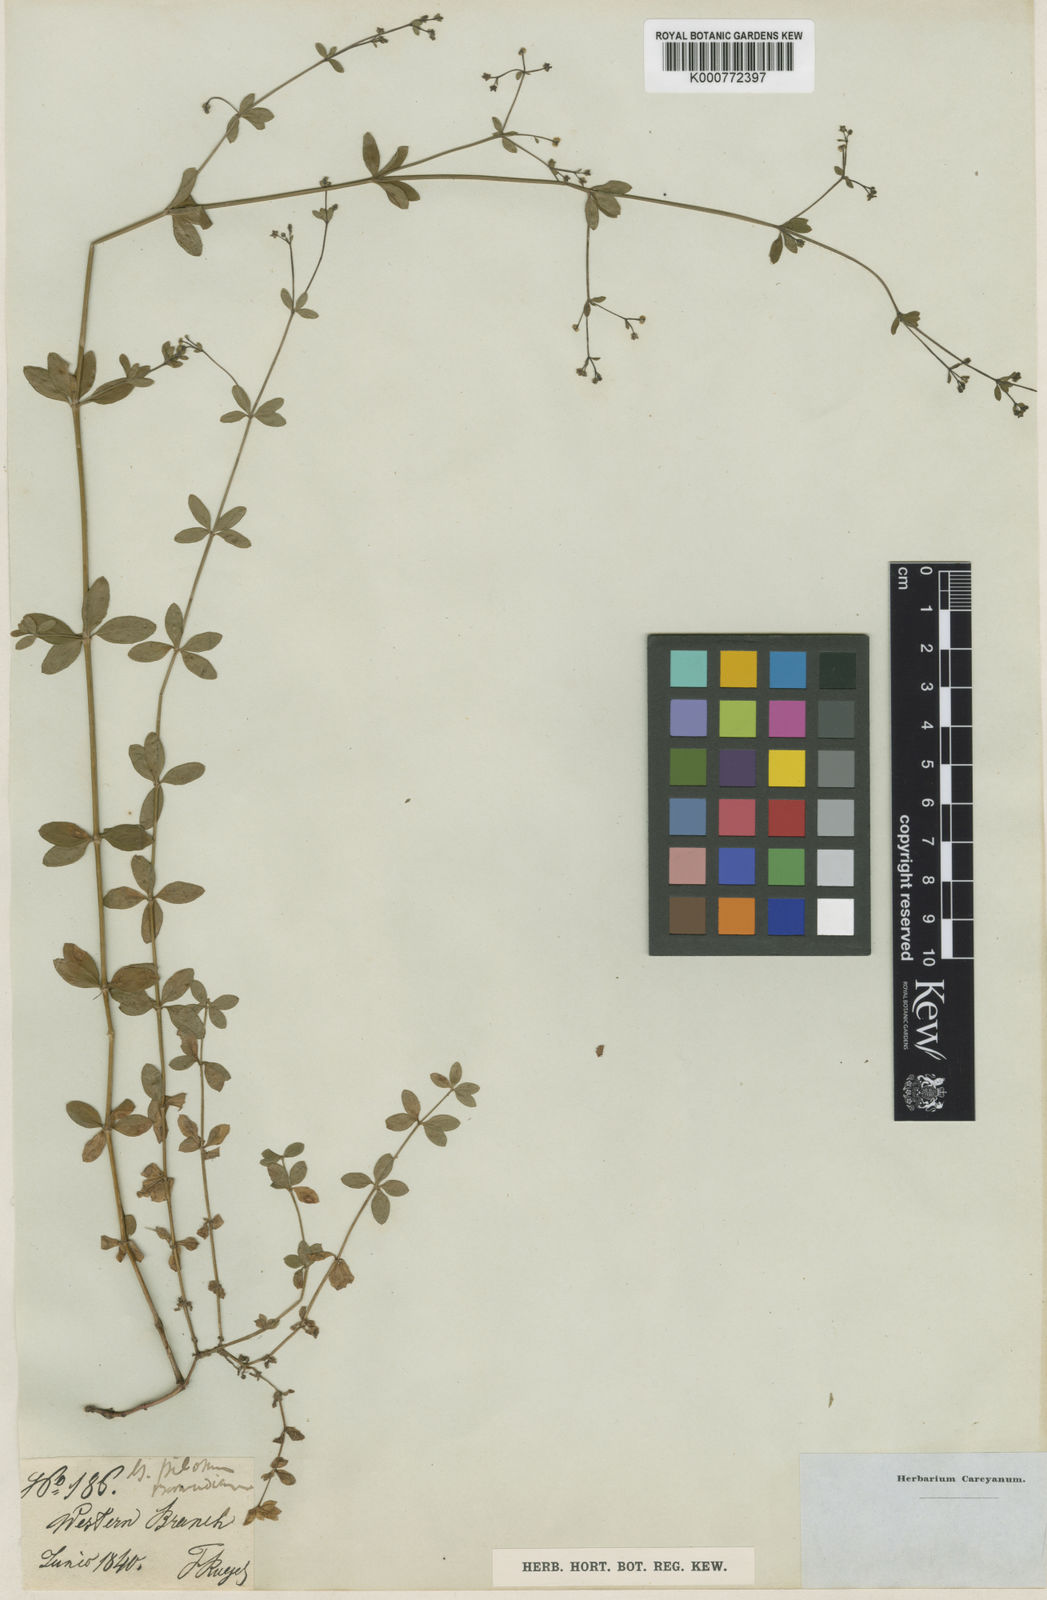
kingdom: Plantae
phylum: Tracheophyta
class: Magnoliopsida
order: Gentianales
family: Rubiaceae
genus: Galium
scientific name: Galium pilosum
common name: Hairy bedstraw
